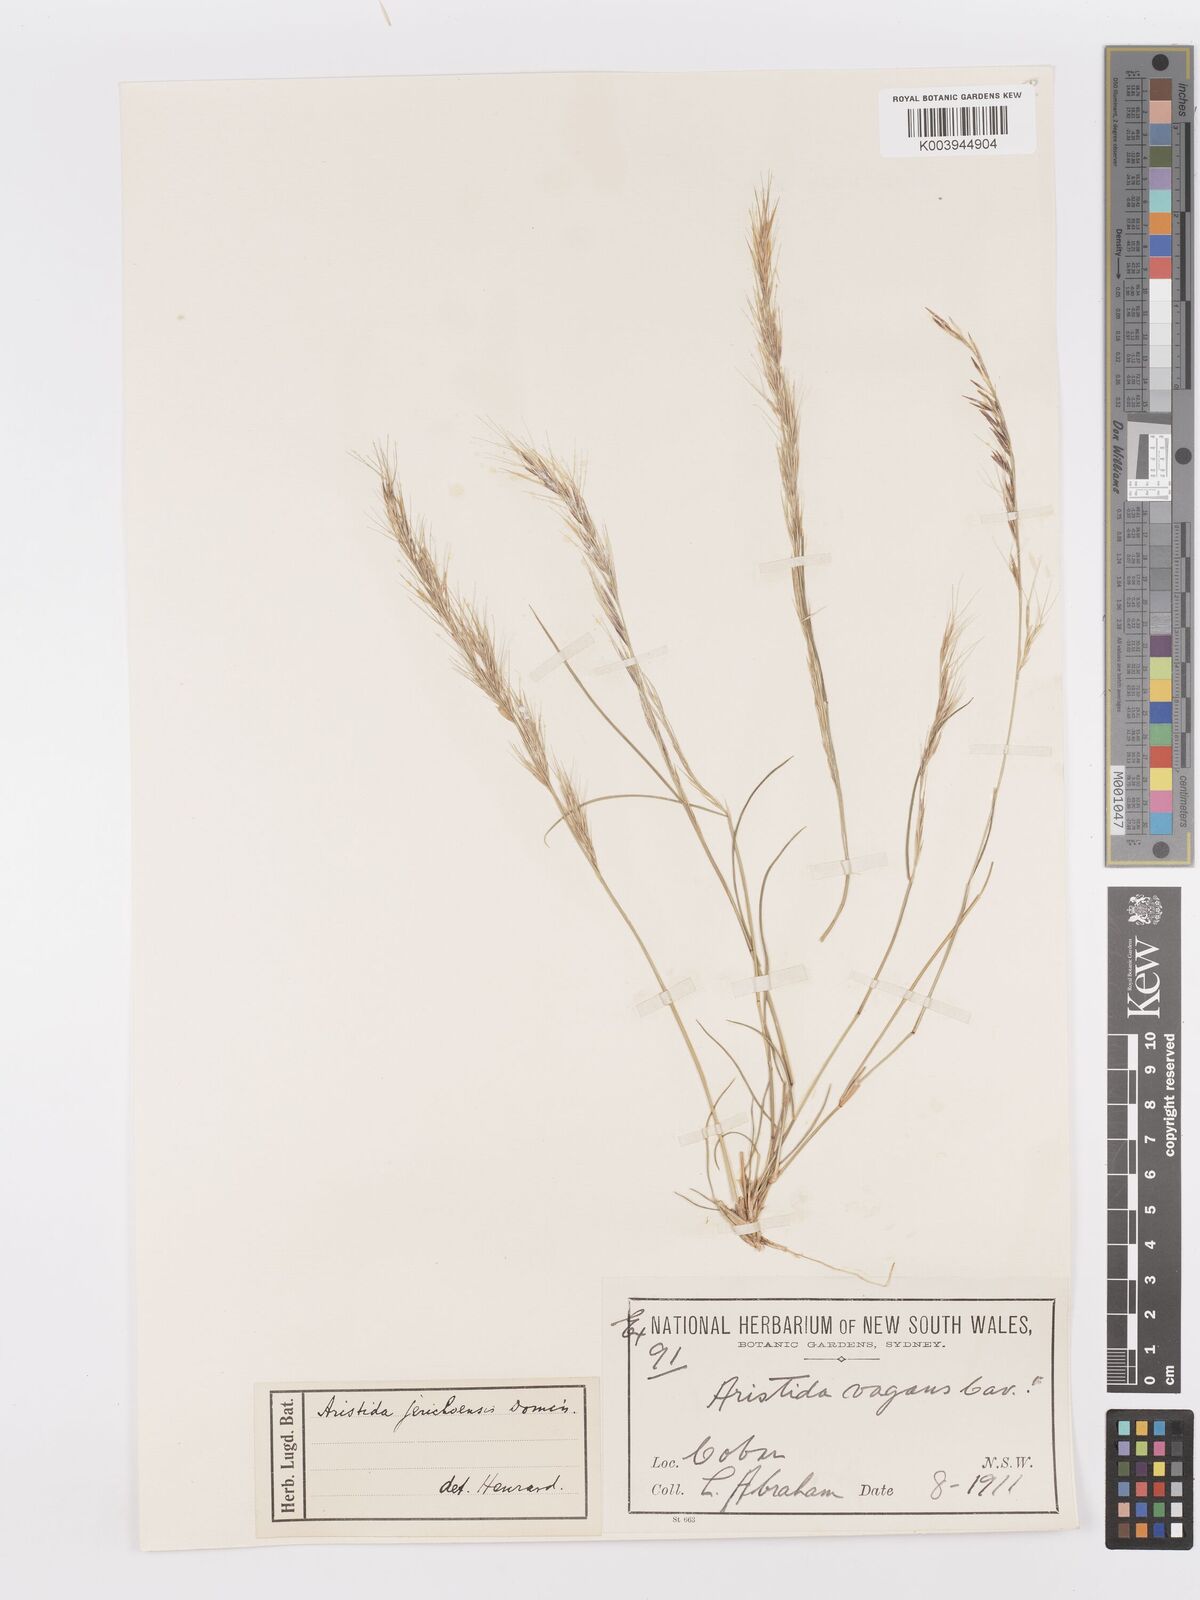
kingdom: Plantae
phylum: Tracheophyta
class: Liliopsida
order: Poales
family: Poaceae
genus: Aristida
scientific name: Aristida jerichoensis
